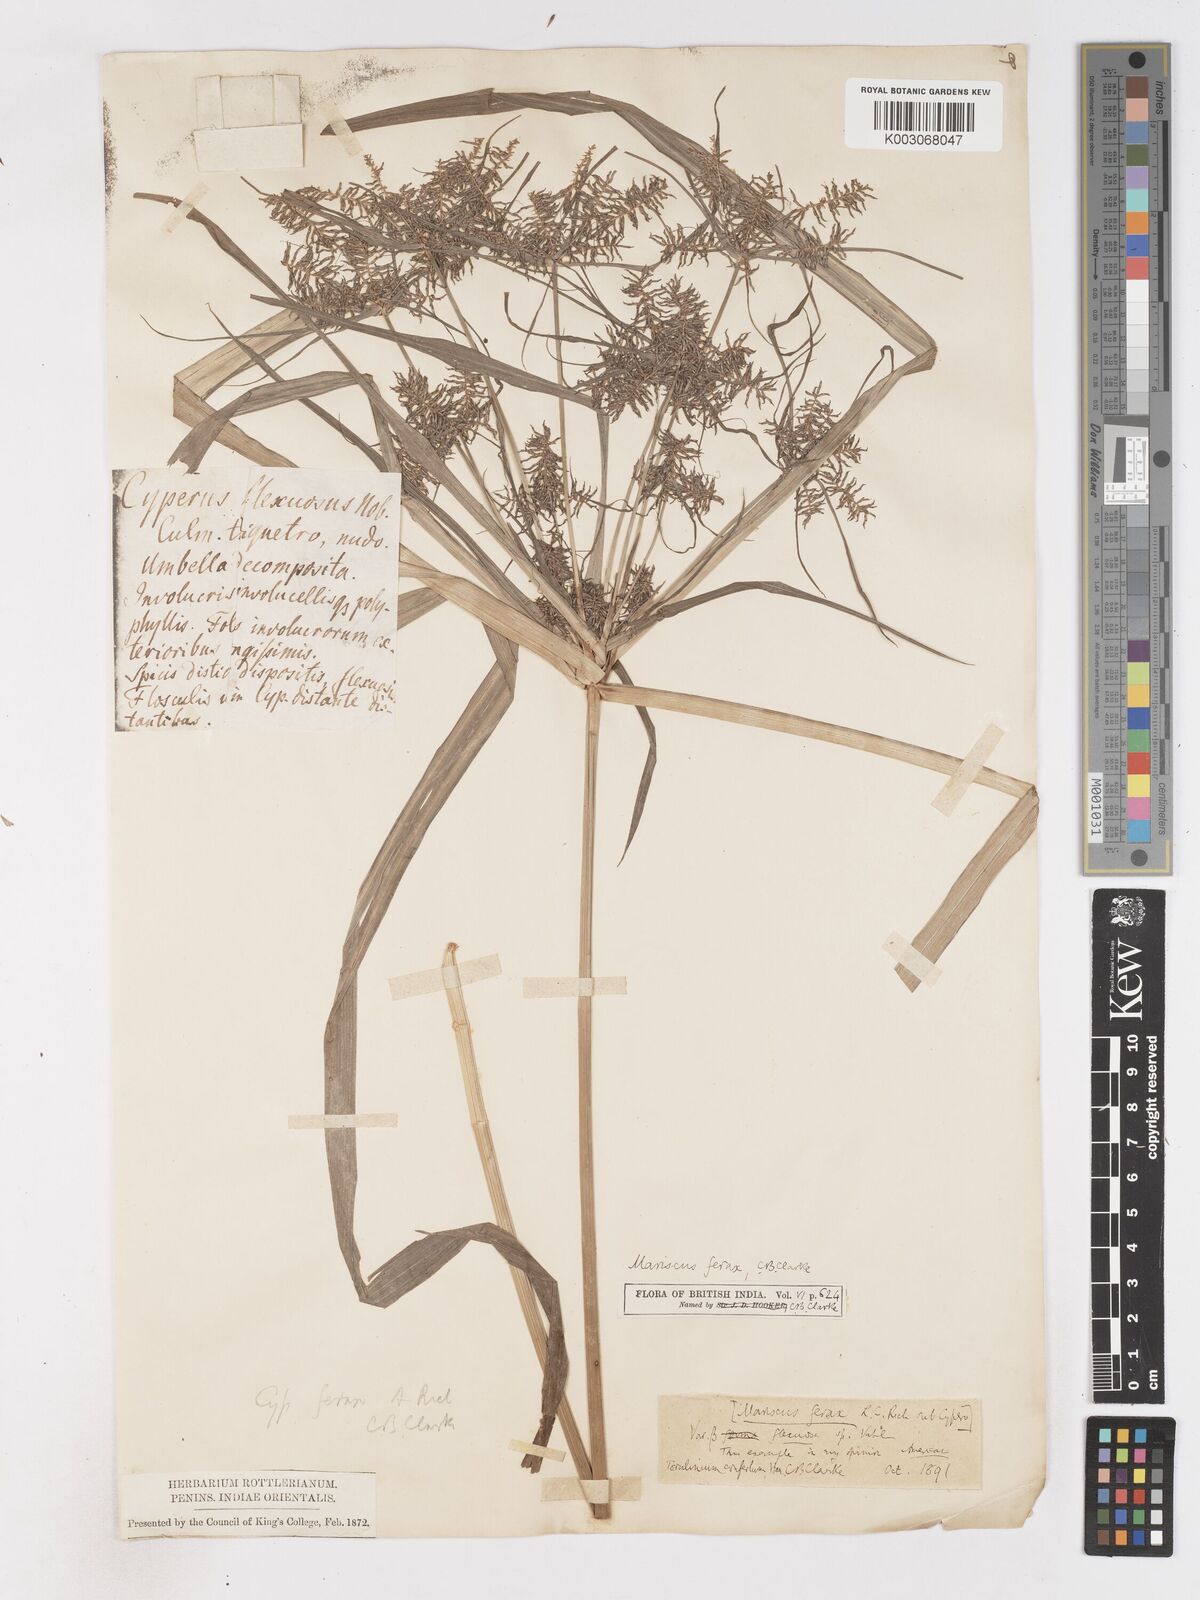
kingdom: Plantae
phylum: Tracheophyta
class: Liliopsida
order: Poales
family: Cyperaceae
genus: Cyperus
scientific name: Cyperus odoratus
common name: Fragrant flatsedge
